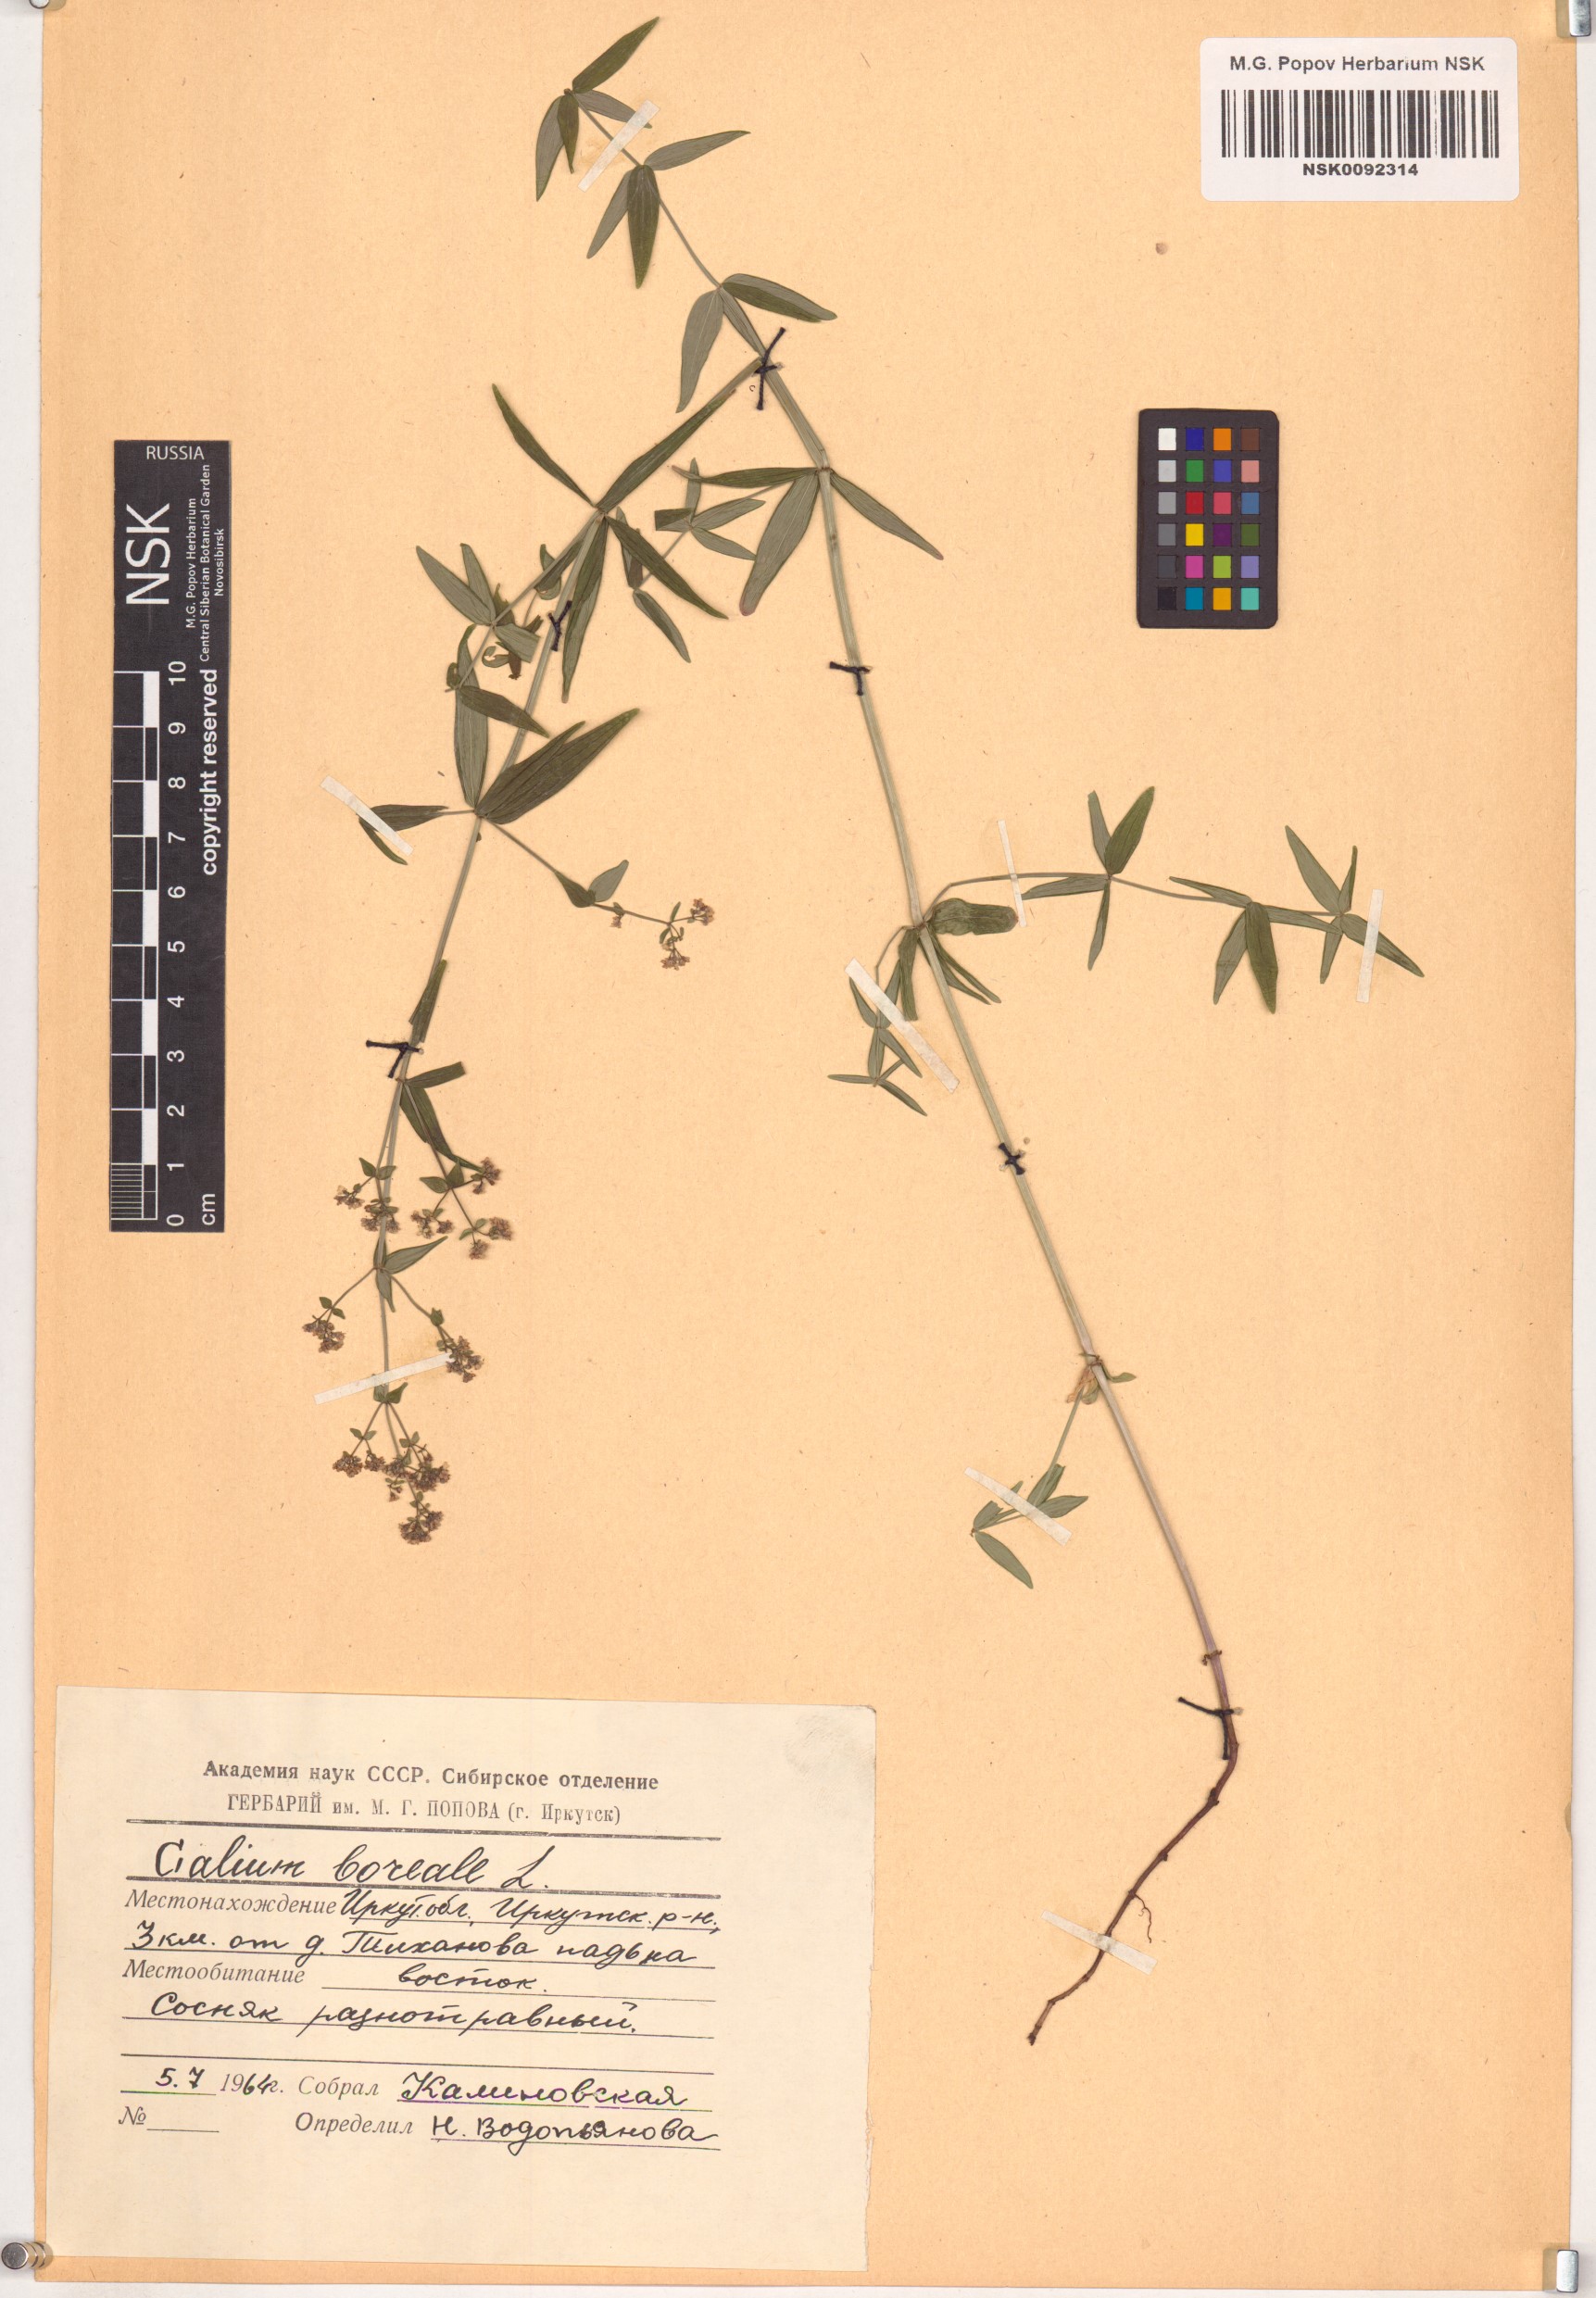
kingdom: Plantae
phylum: Tracheophyta
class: Magnoliopsida
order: Gentianales
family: Rubiaceae
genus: Galium
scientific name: Galium boreale
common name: Northern bedstraw
